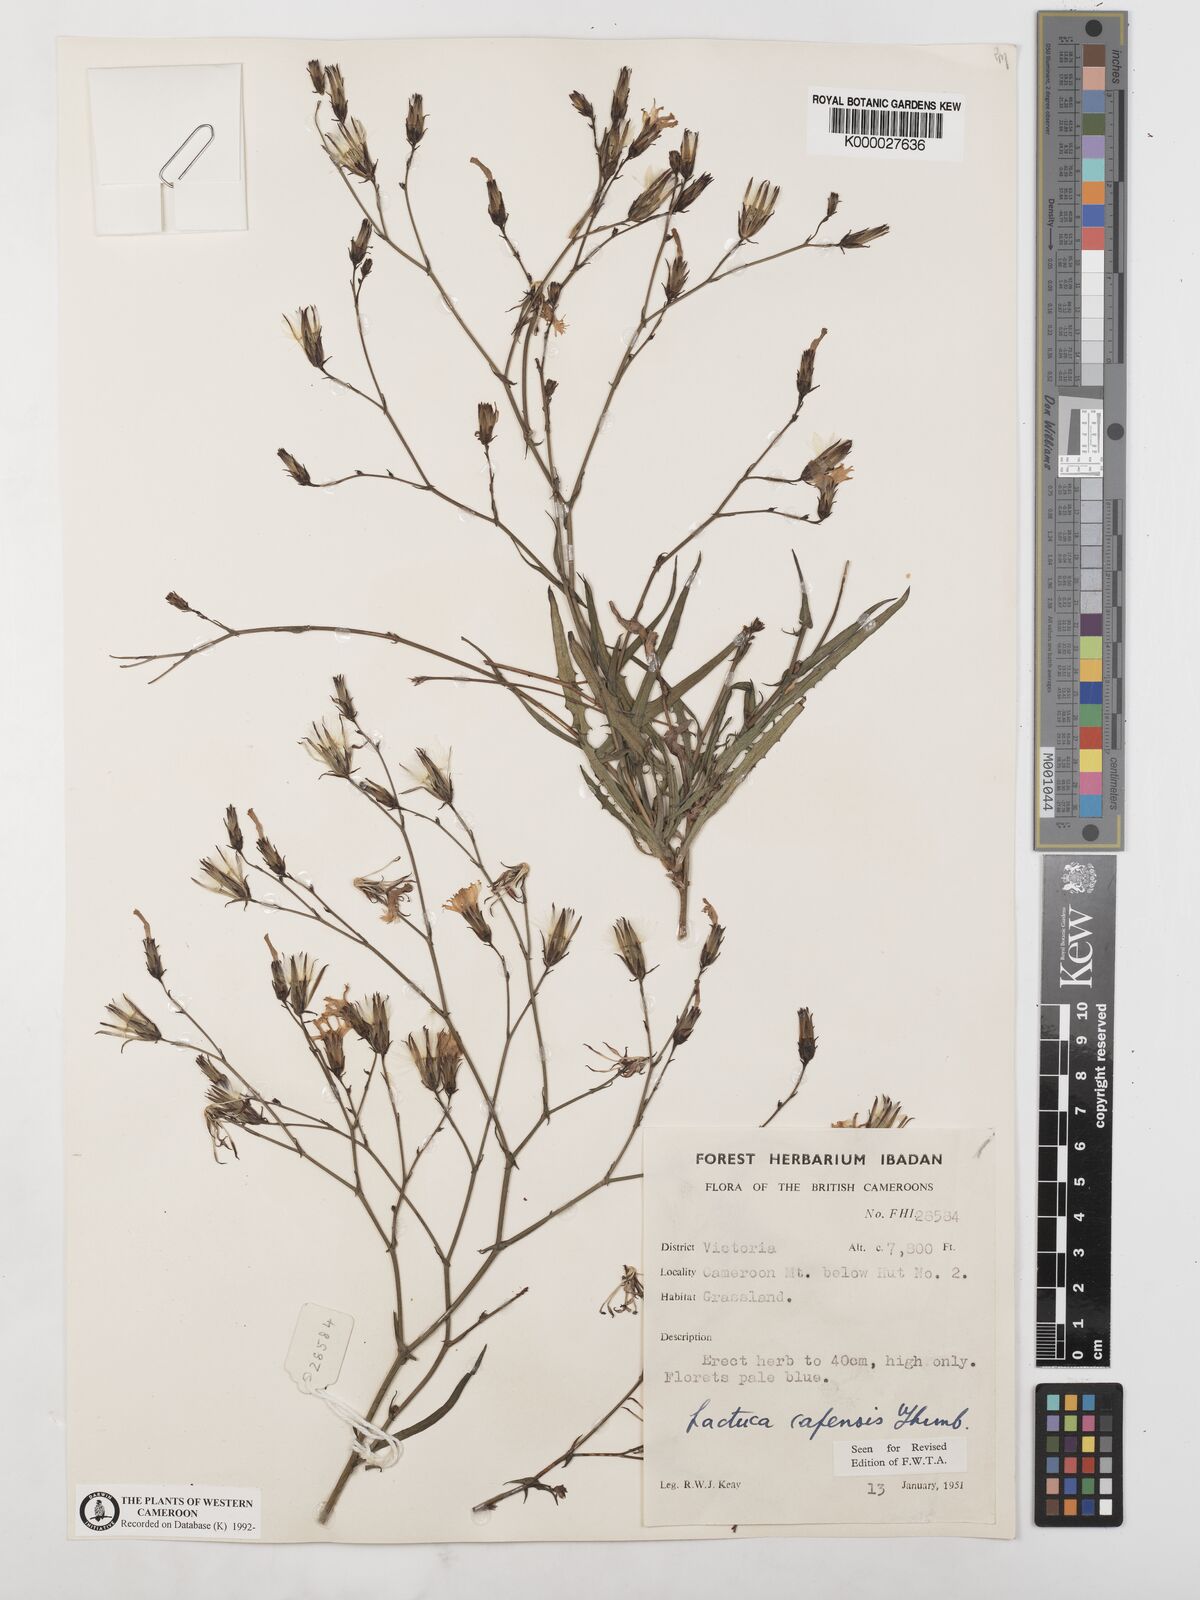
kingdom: Plantae
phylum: Tracheophyta
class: Magnoliopsida
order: Asterales
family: Asteraceae
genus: Lactuca
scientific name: Lactuca inermis
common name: Wild lettuce
